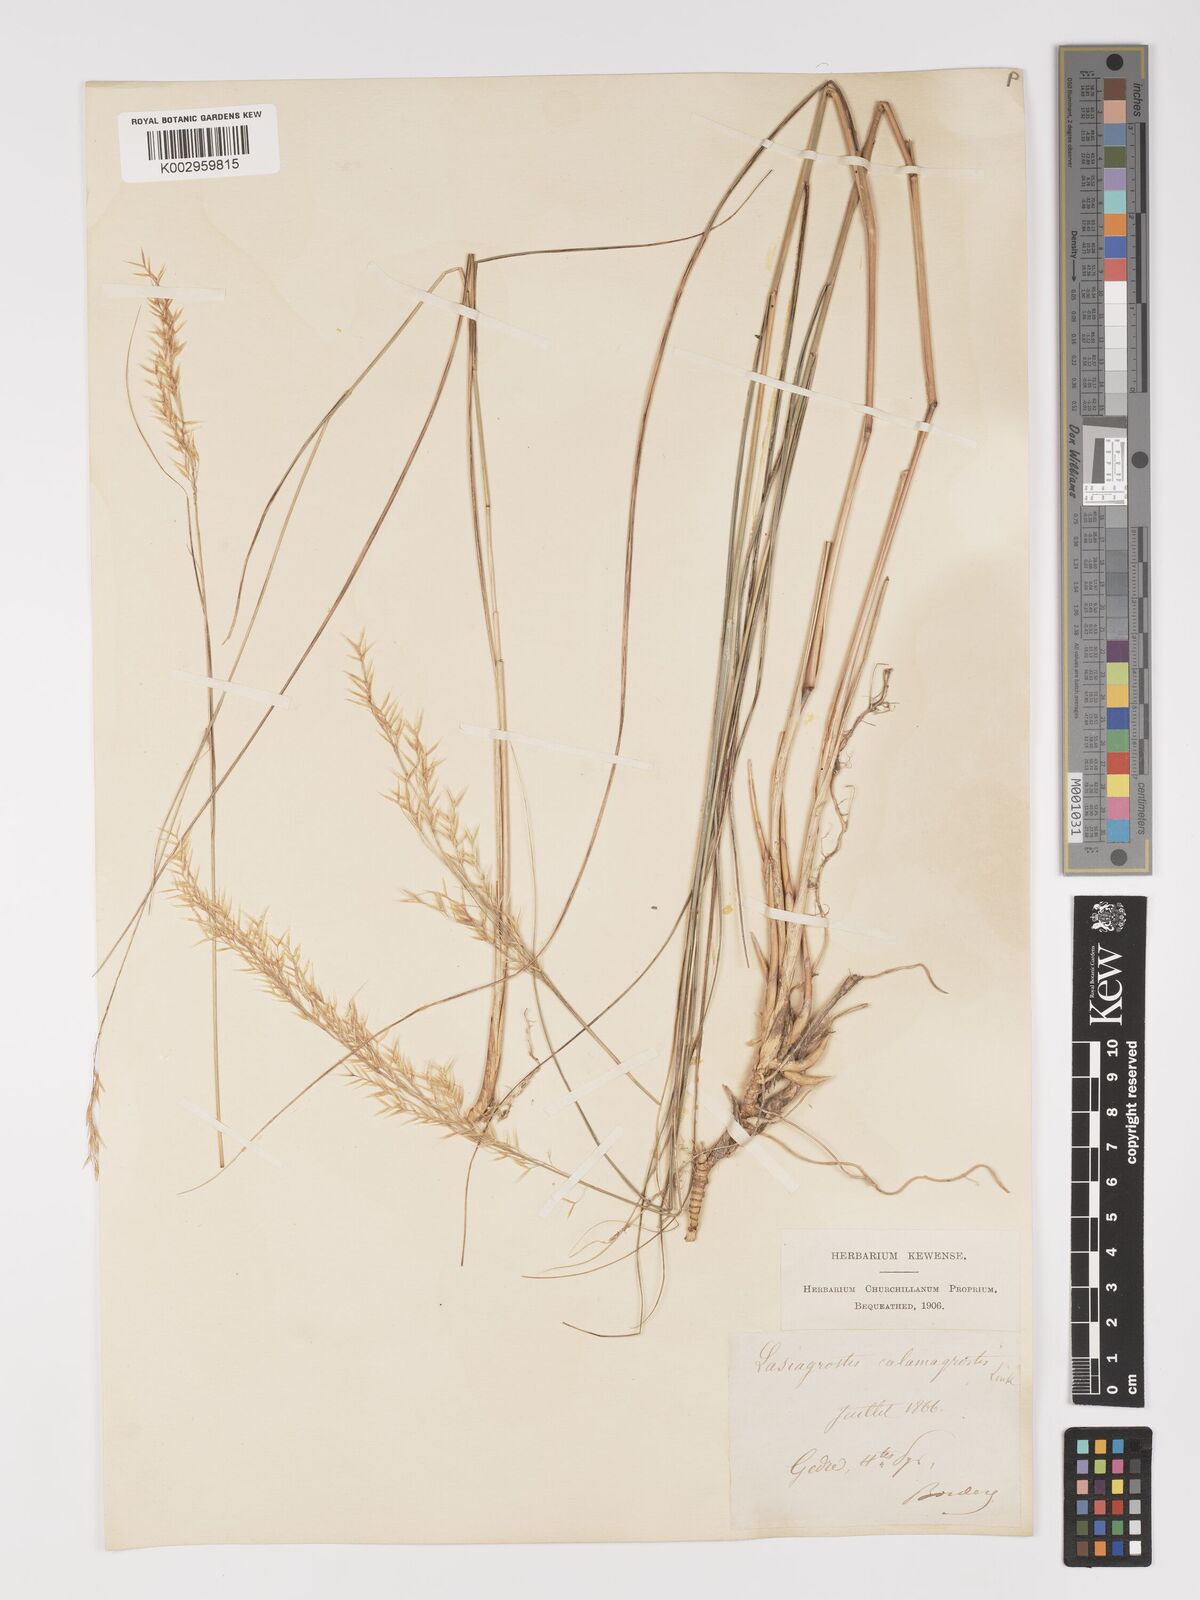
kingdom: Plantae
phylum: Tracheophyta
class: Liliopsida
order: Poales
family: Poaceae
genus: Achnatherum
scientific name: Achnatherum calamagrostis
